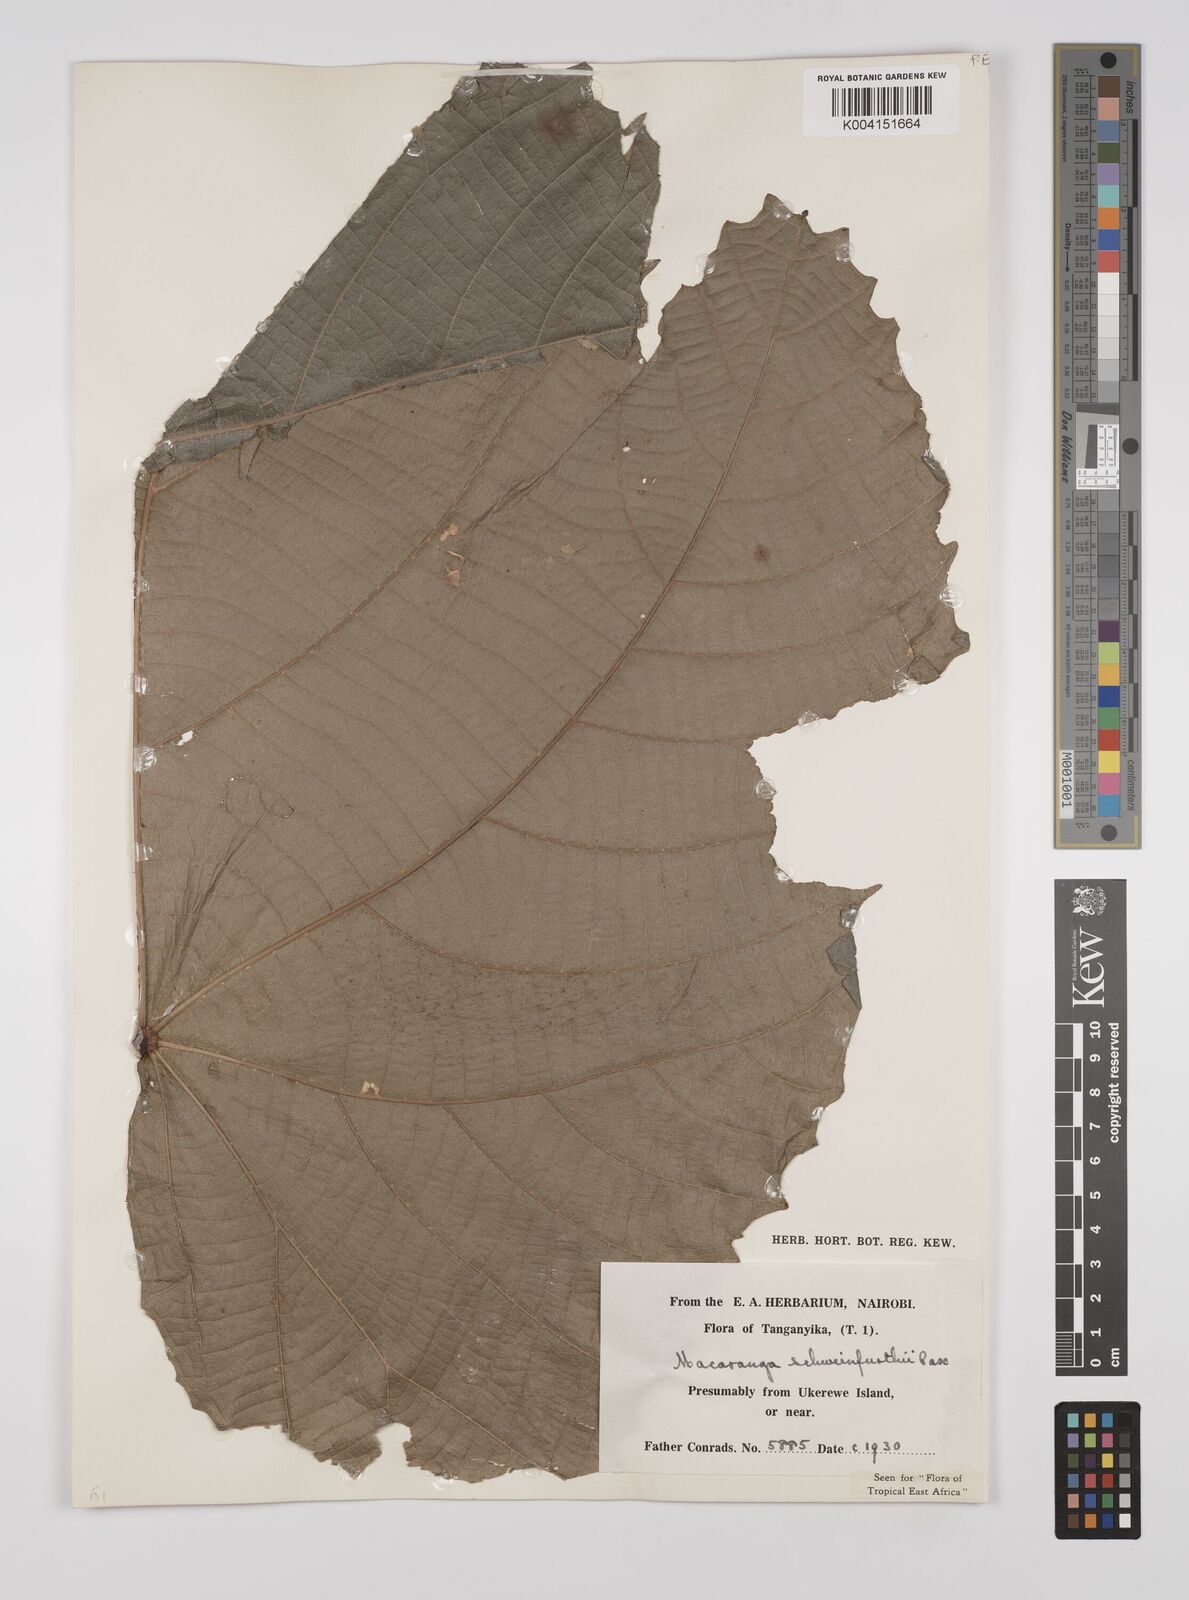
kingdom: Plantae
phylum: Tracheophyta
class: Magnoliopsida
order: Malpighiales
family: Euphorbiaceae
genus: Macaranga
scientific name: Macaranga schweinfurthii
